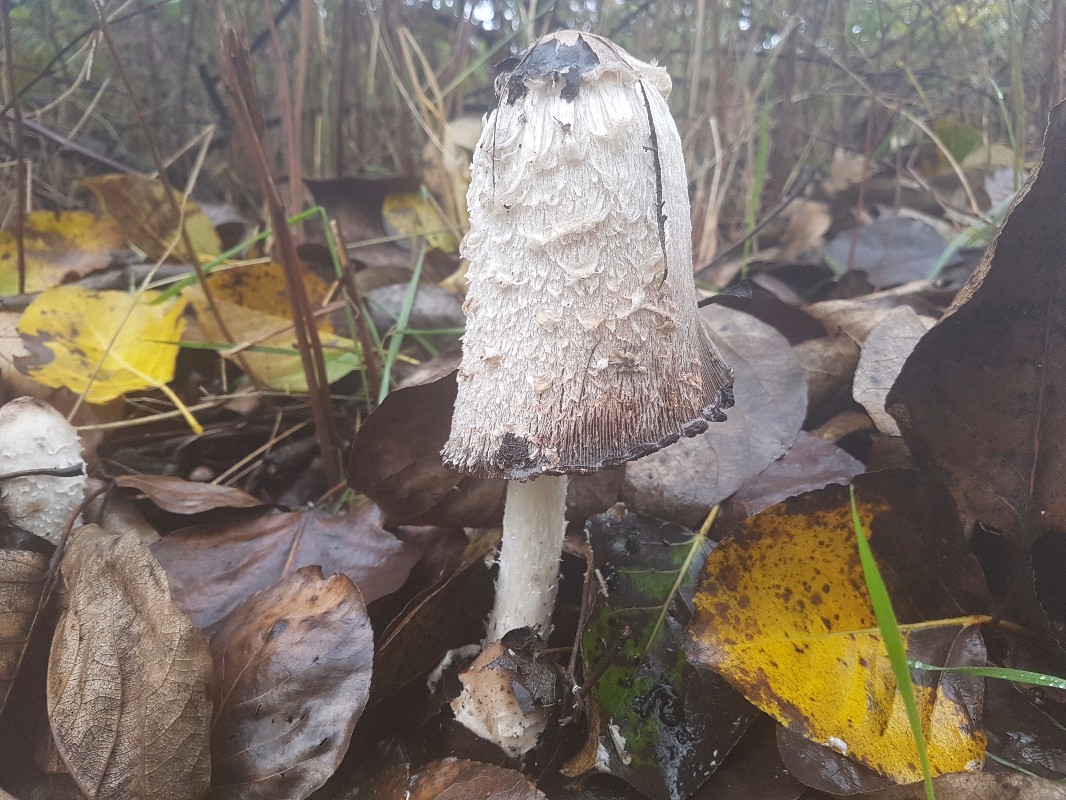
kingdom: Fungi
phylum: Basidiomycota
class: Agaricomycetes
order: Agaricales
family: Agaricaceae
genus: Coprinus
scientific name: Coprinus comatus
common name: stor parykhat
